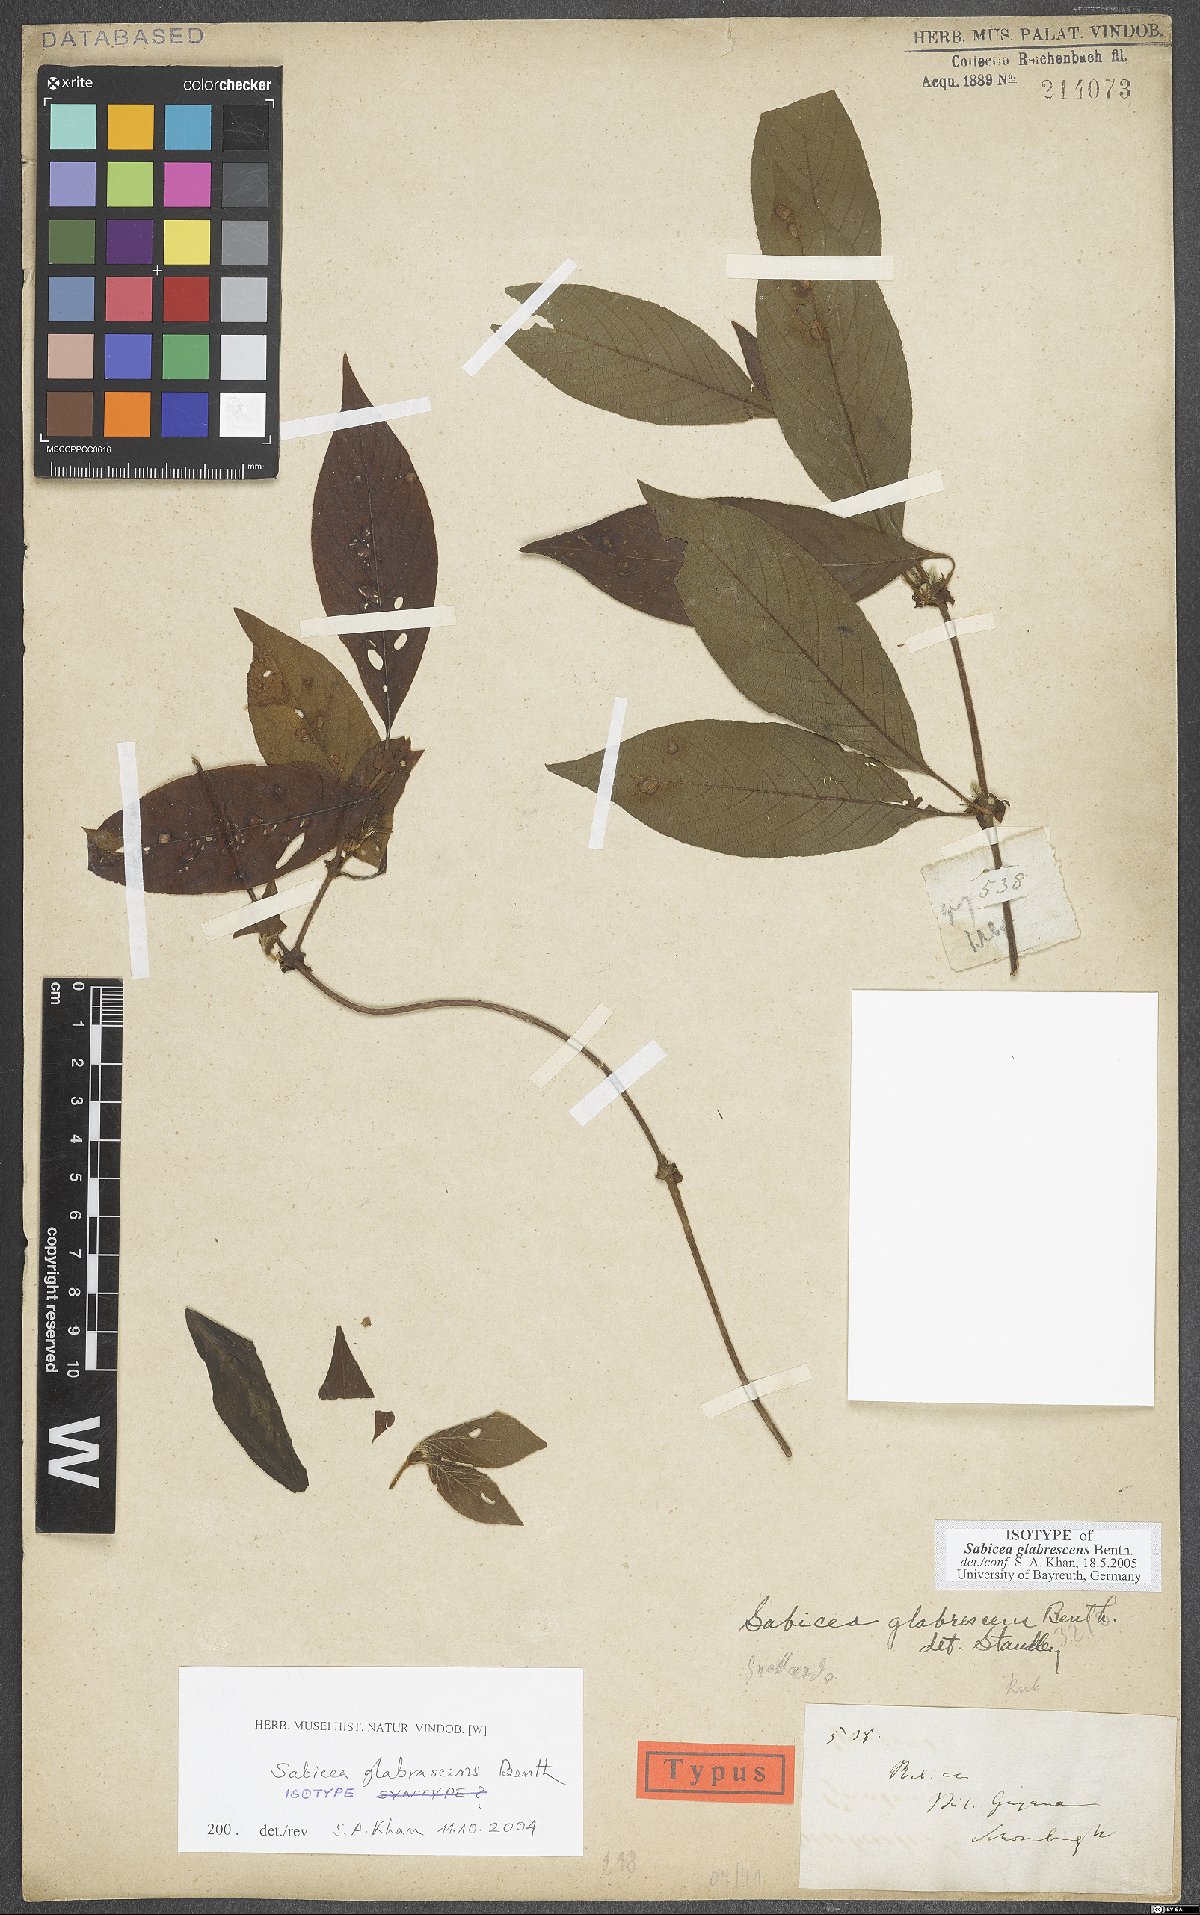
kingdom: Plantae
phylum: Tracheophyta
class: Magnoliopsida
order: Gentianales
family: Rubiaceae
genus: Sabicea
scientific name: Sabicea glabrescens
